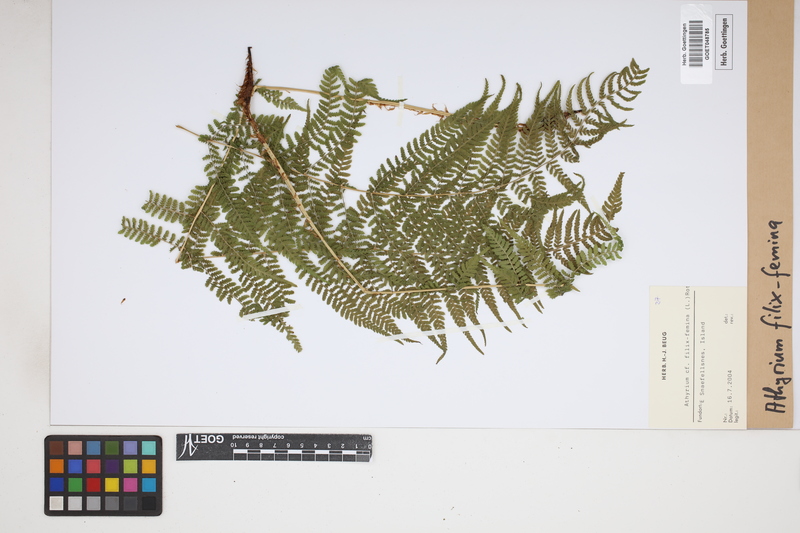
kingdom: Plantae
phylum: Tracheophyta
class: Polypodiopsida
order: Polypodiales
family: Athyriaceae
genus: Athyrium
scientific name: Athyrium filix-femina
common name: Lady fern
